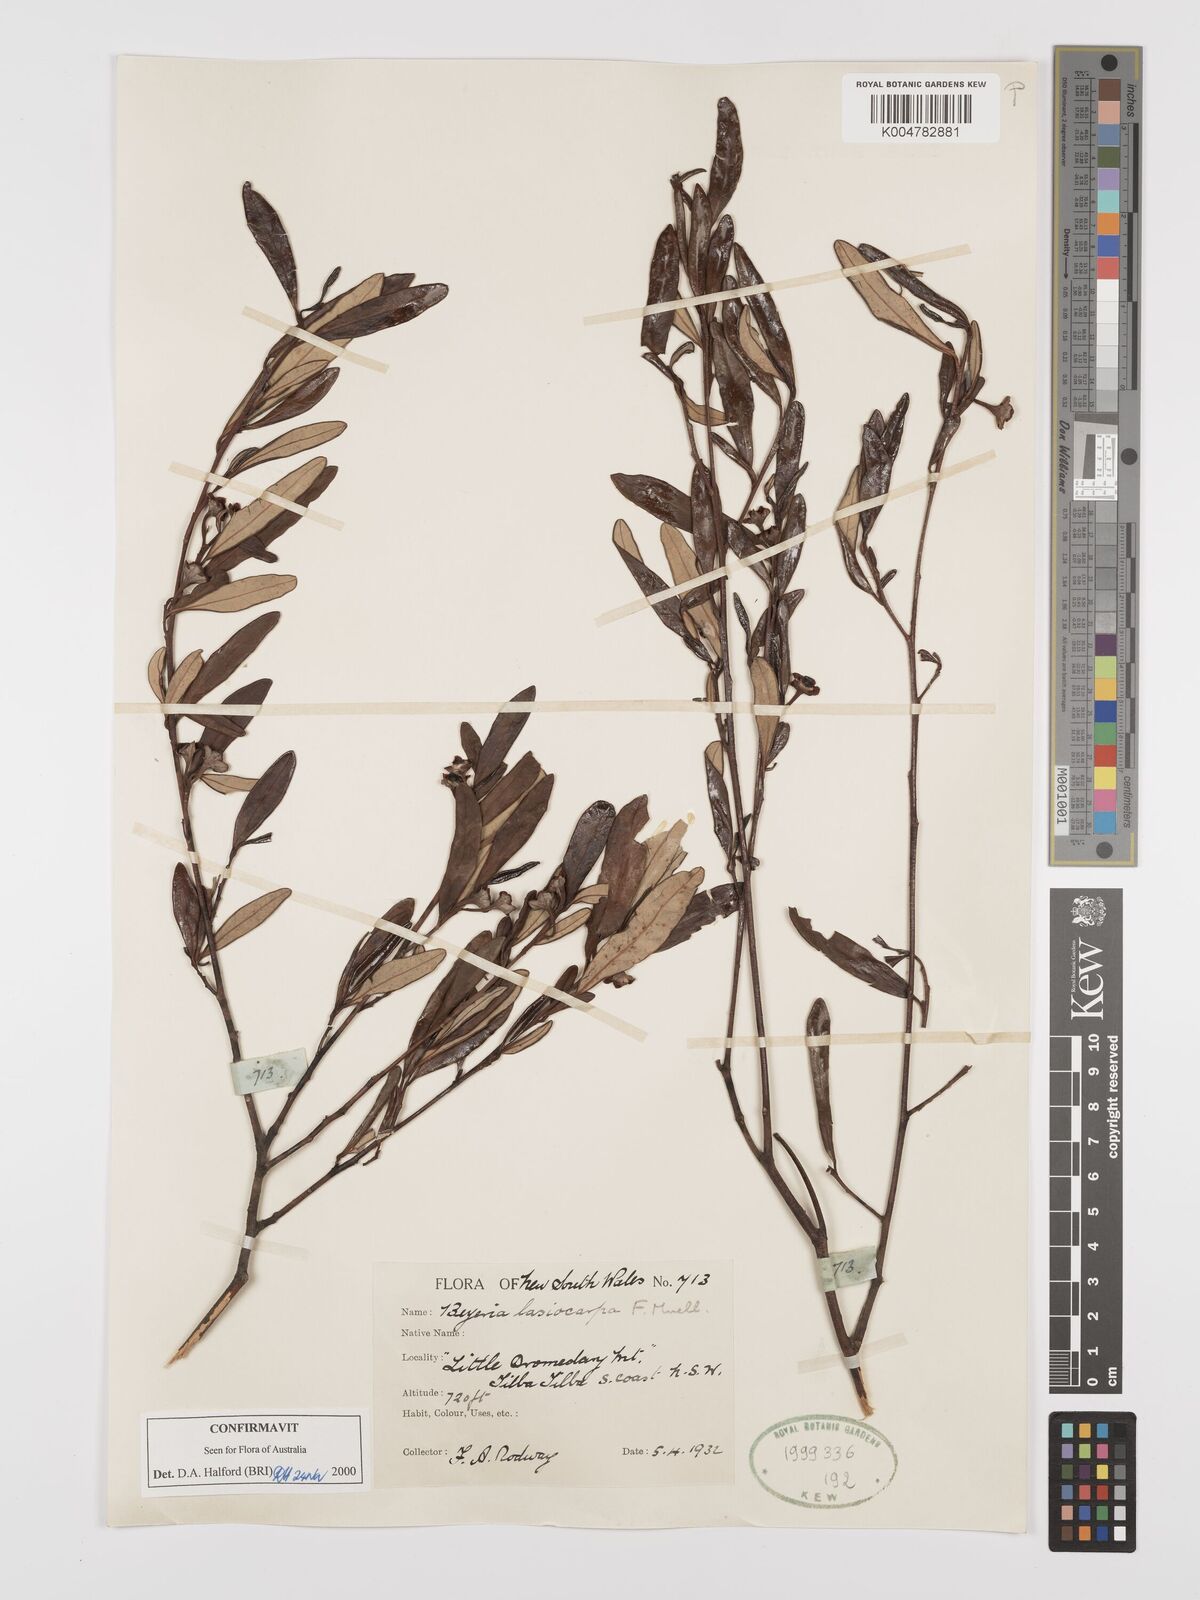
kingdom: Plantae
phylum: Tracheophyta
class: Magnoliopsida
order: Malpighiales
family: Euphorbiaceae
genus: Beyeria
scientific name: Beyeria lasiocarpa
